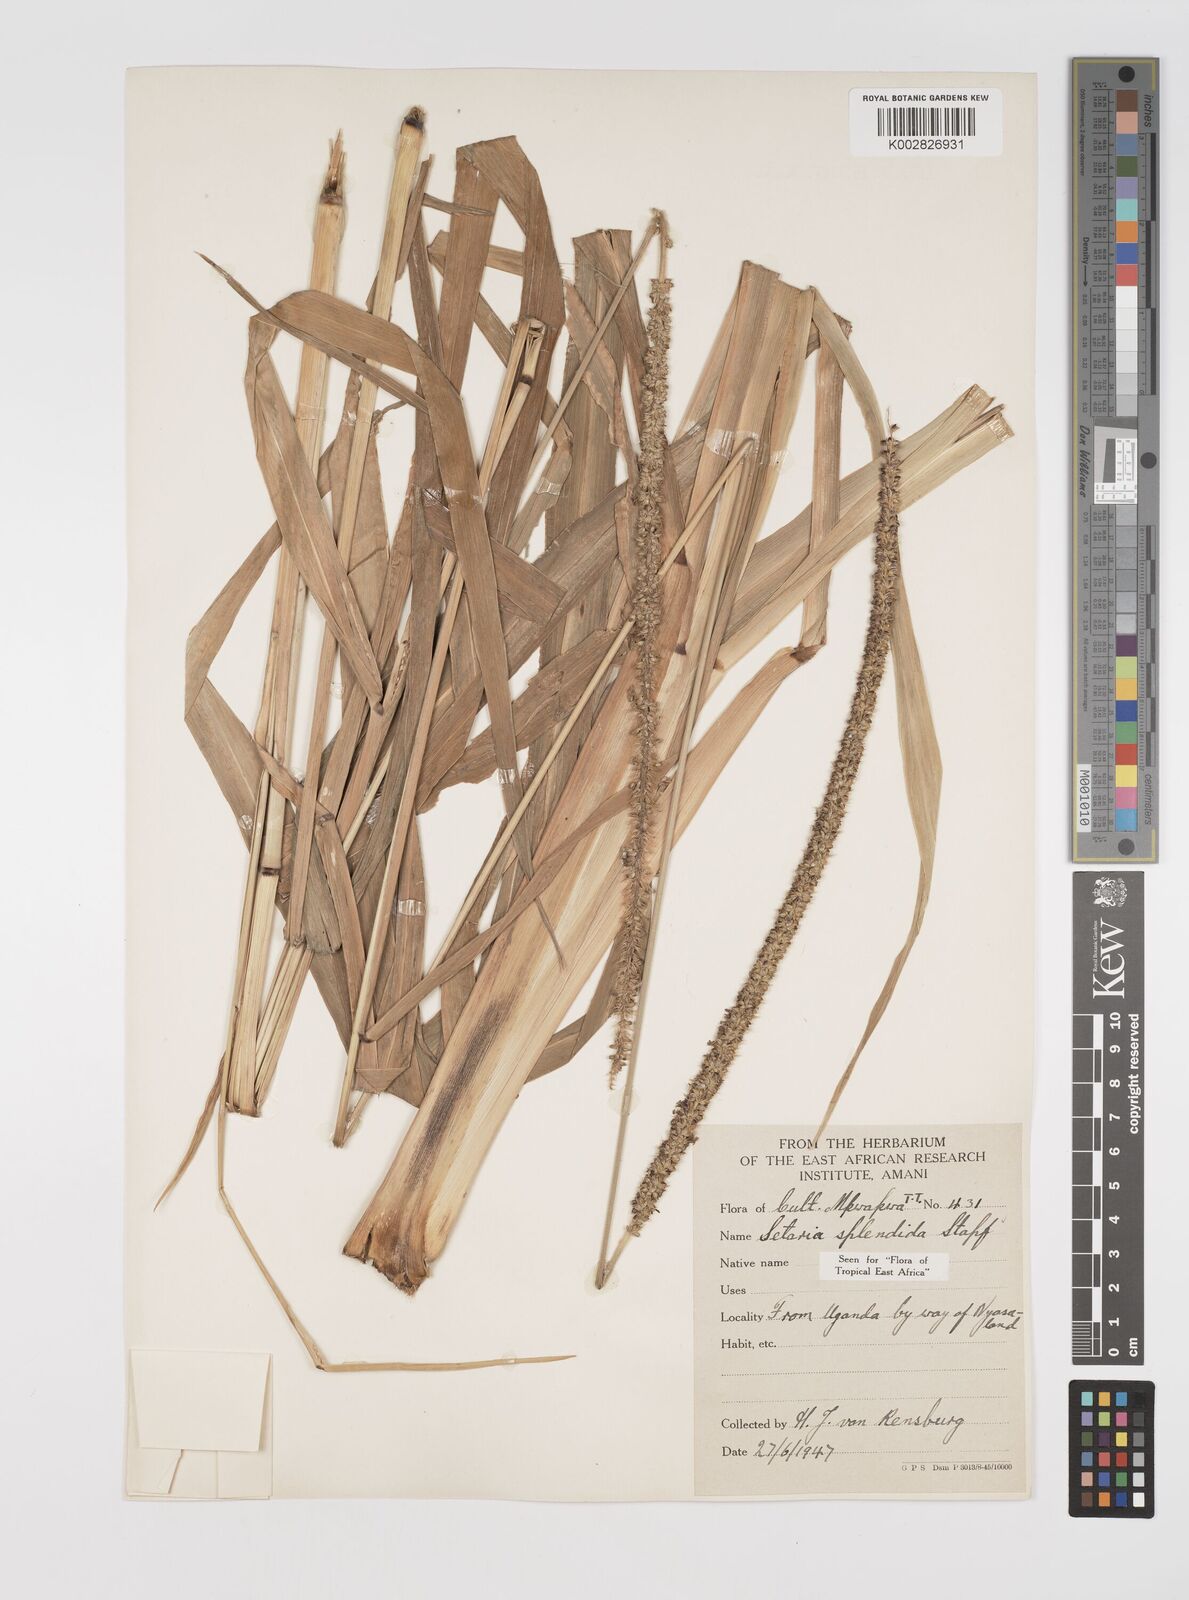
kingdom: Plantae
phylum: Tracheophyta
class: Liliopsida
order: Poales
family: Poaceae
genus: Setaria
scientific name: Setaria sphacelata
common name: African bristlegrass
